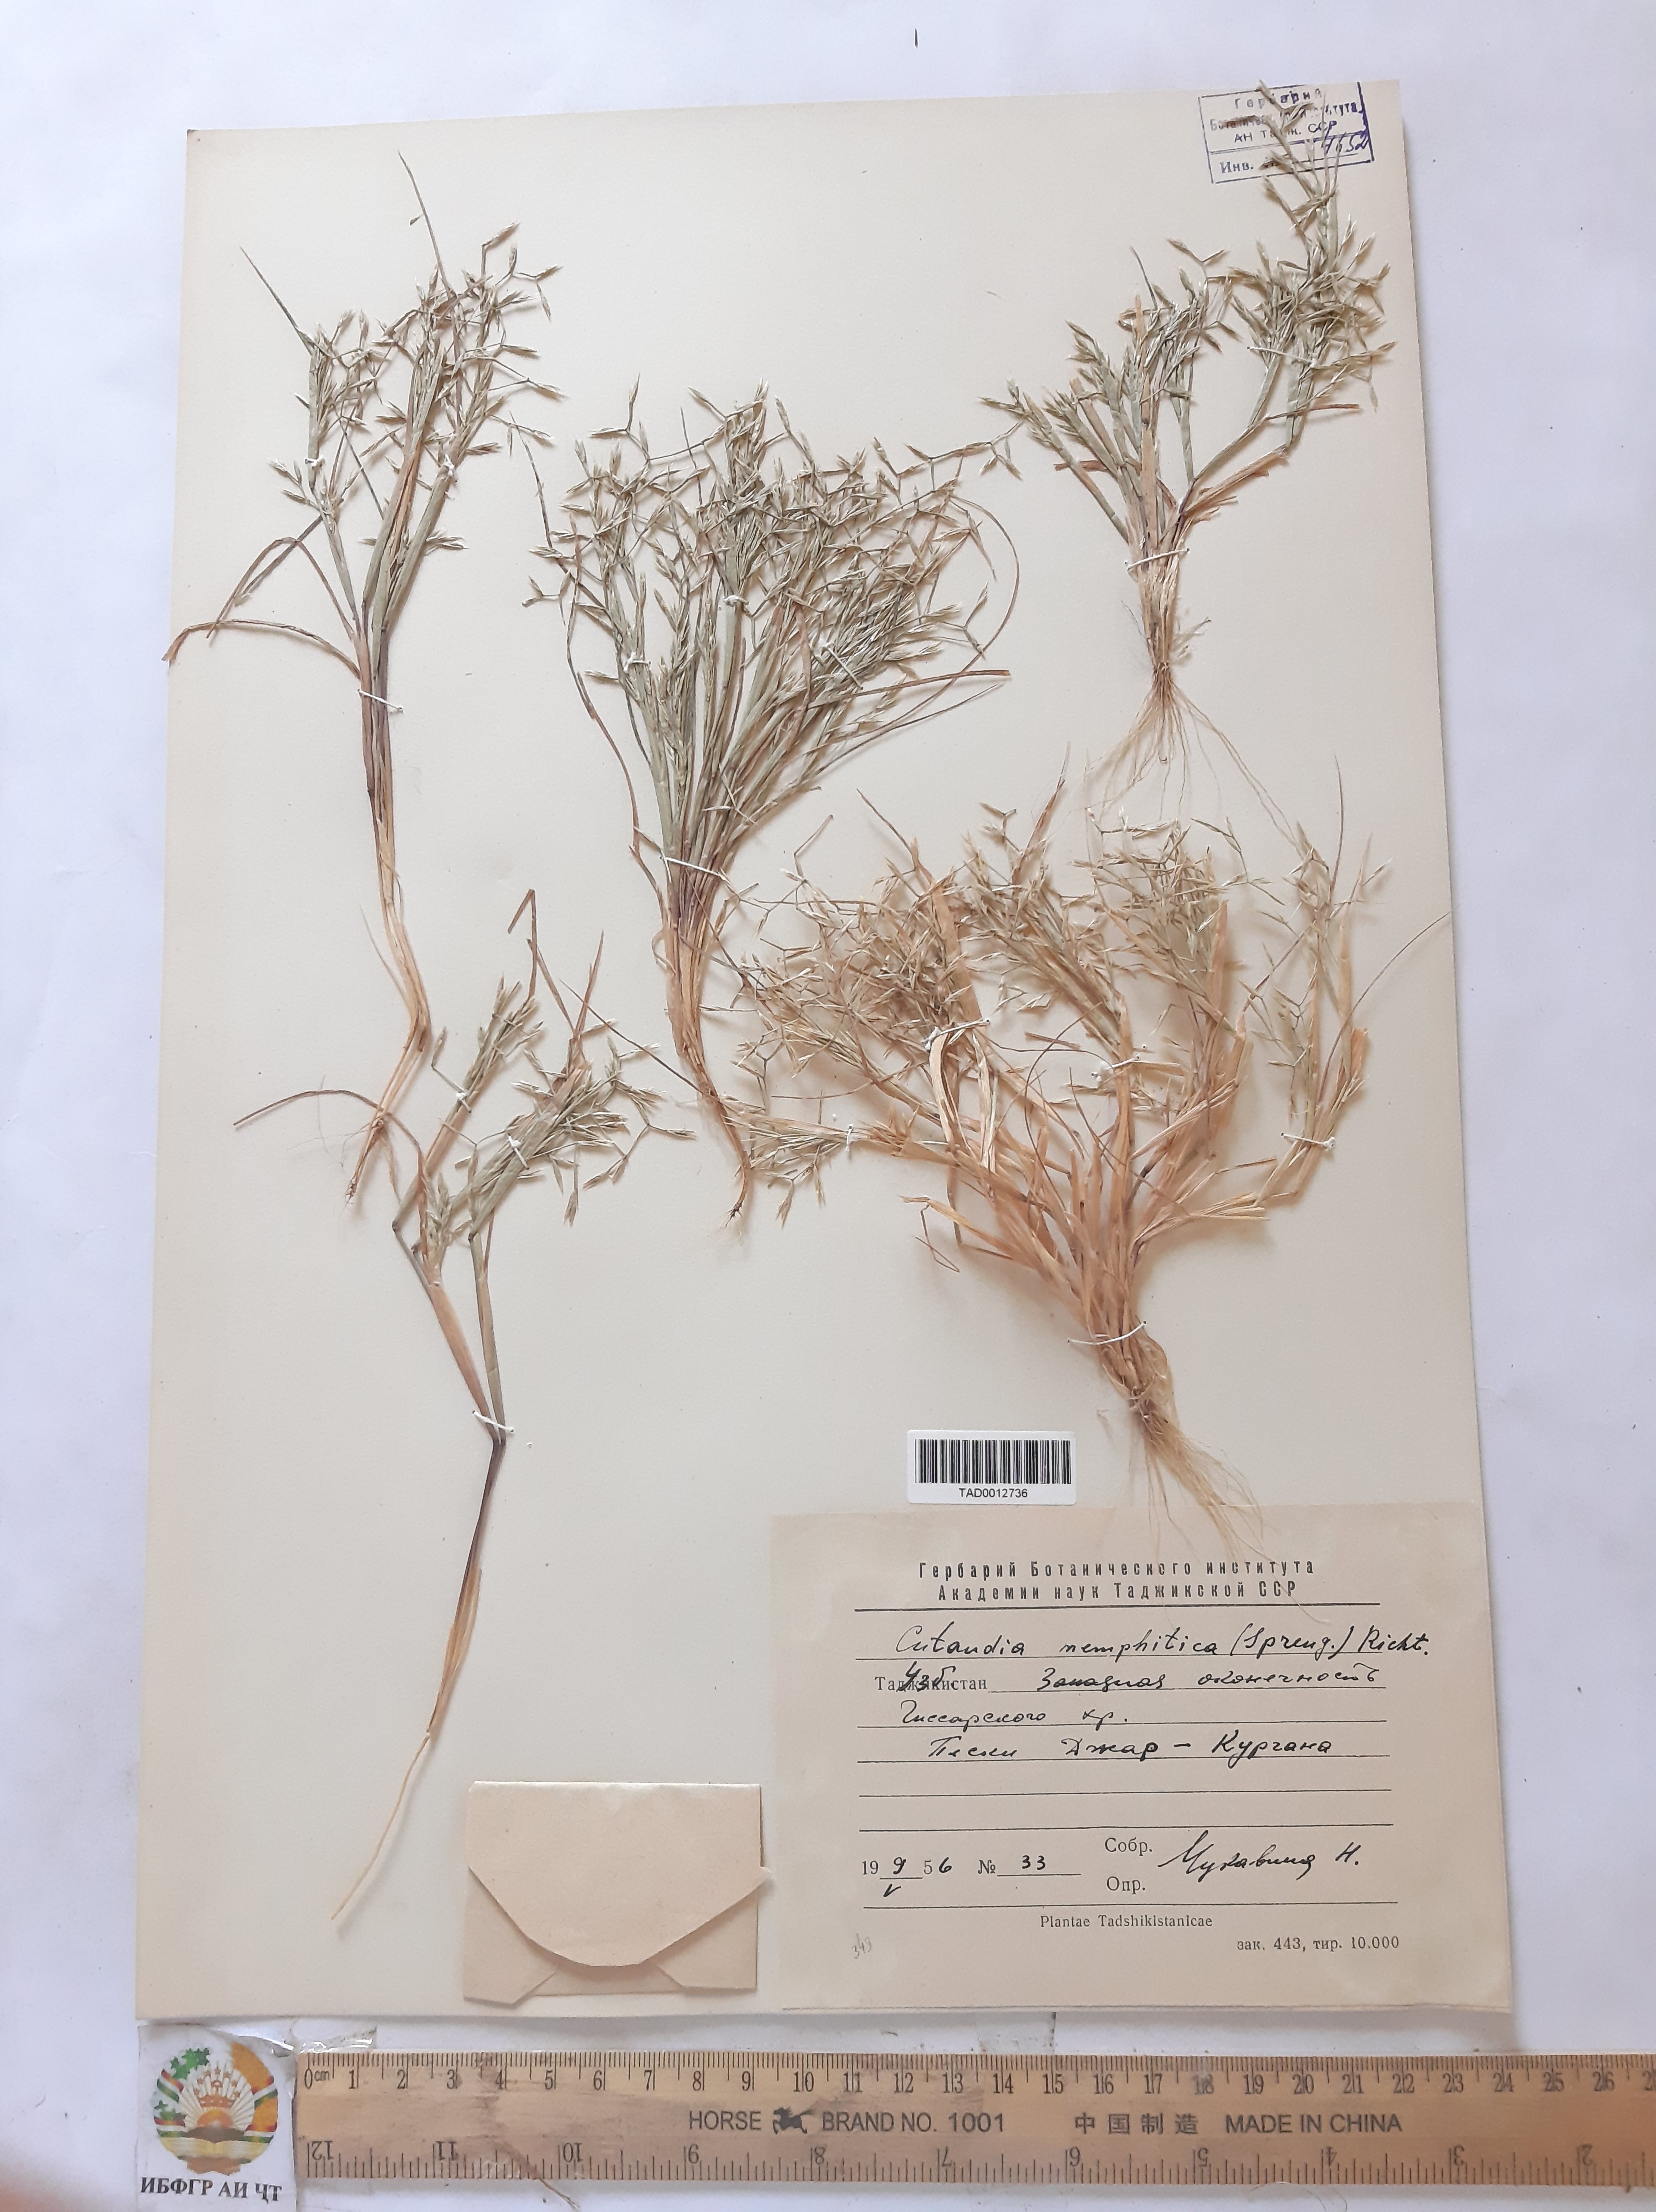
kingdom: Plantae
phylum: Tracheophyta
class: Liliopsida
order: Poales
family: Poaceae
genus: Cutandia
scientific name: Cutandia memphitica
